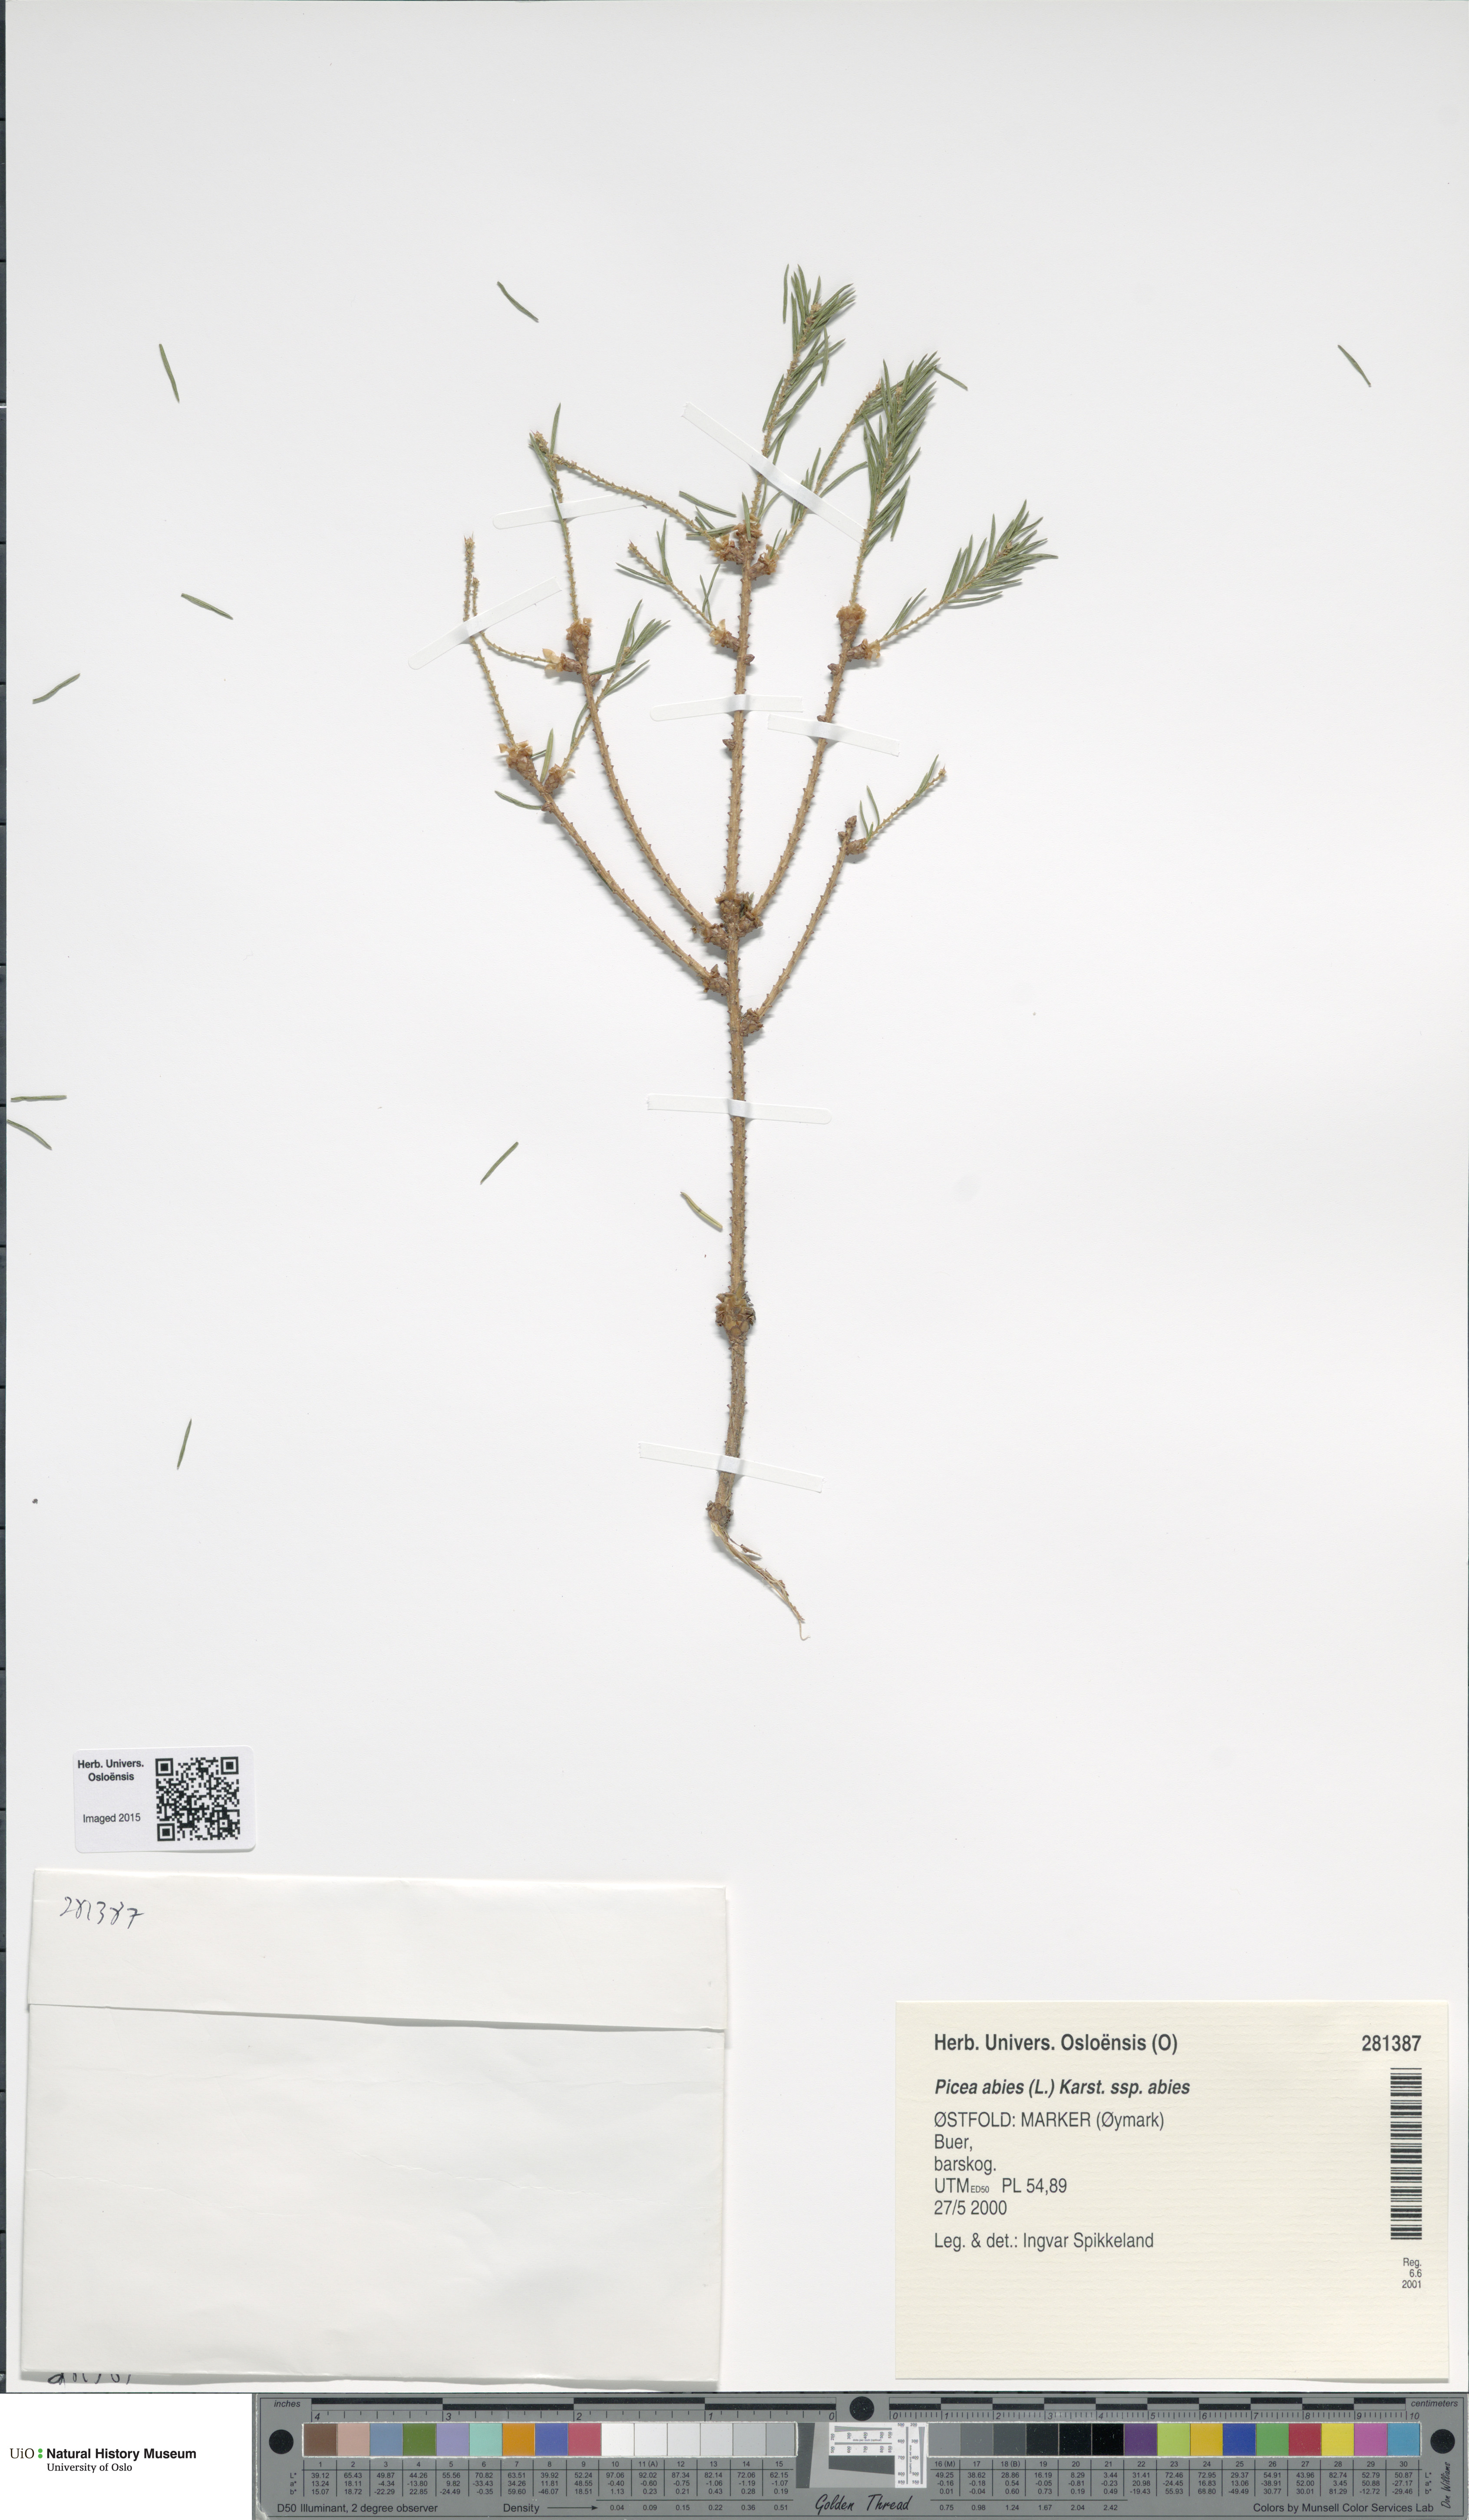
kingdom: Plantae
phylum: Tracheophyta
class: Pinopsida
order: Pinales
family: Pinaceae
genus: Picea
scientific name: Picea abies
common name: Norway spruce
